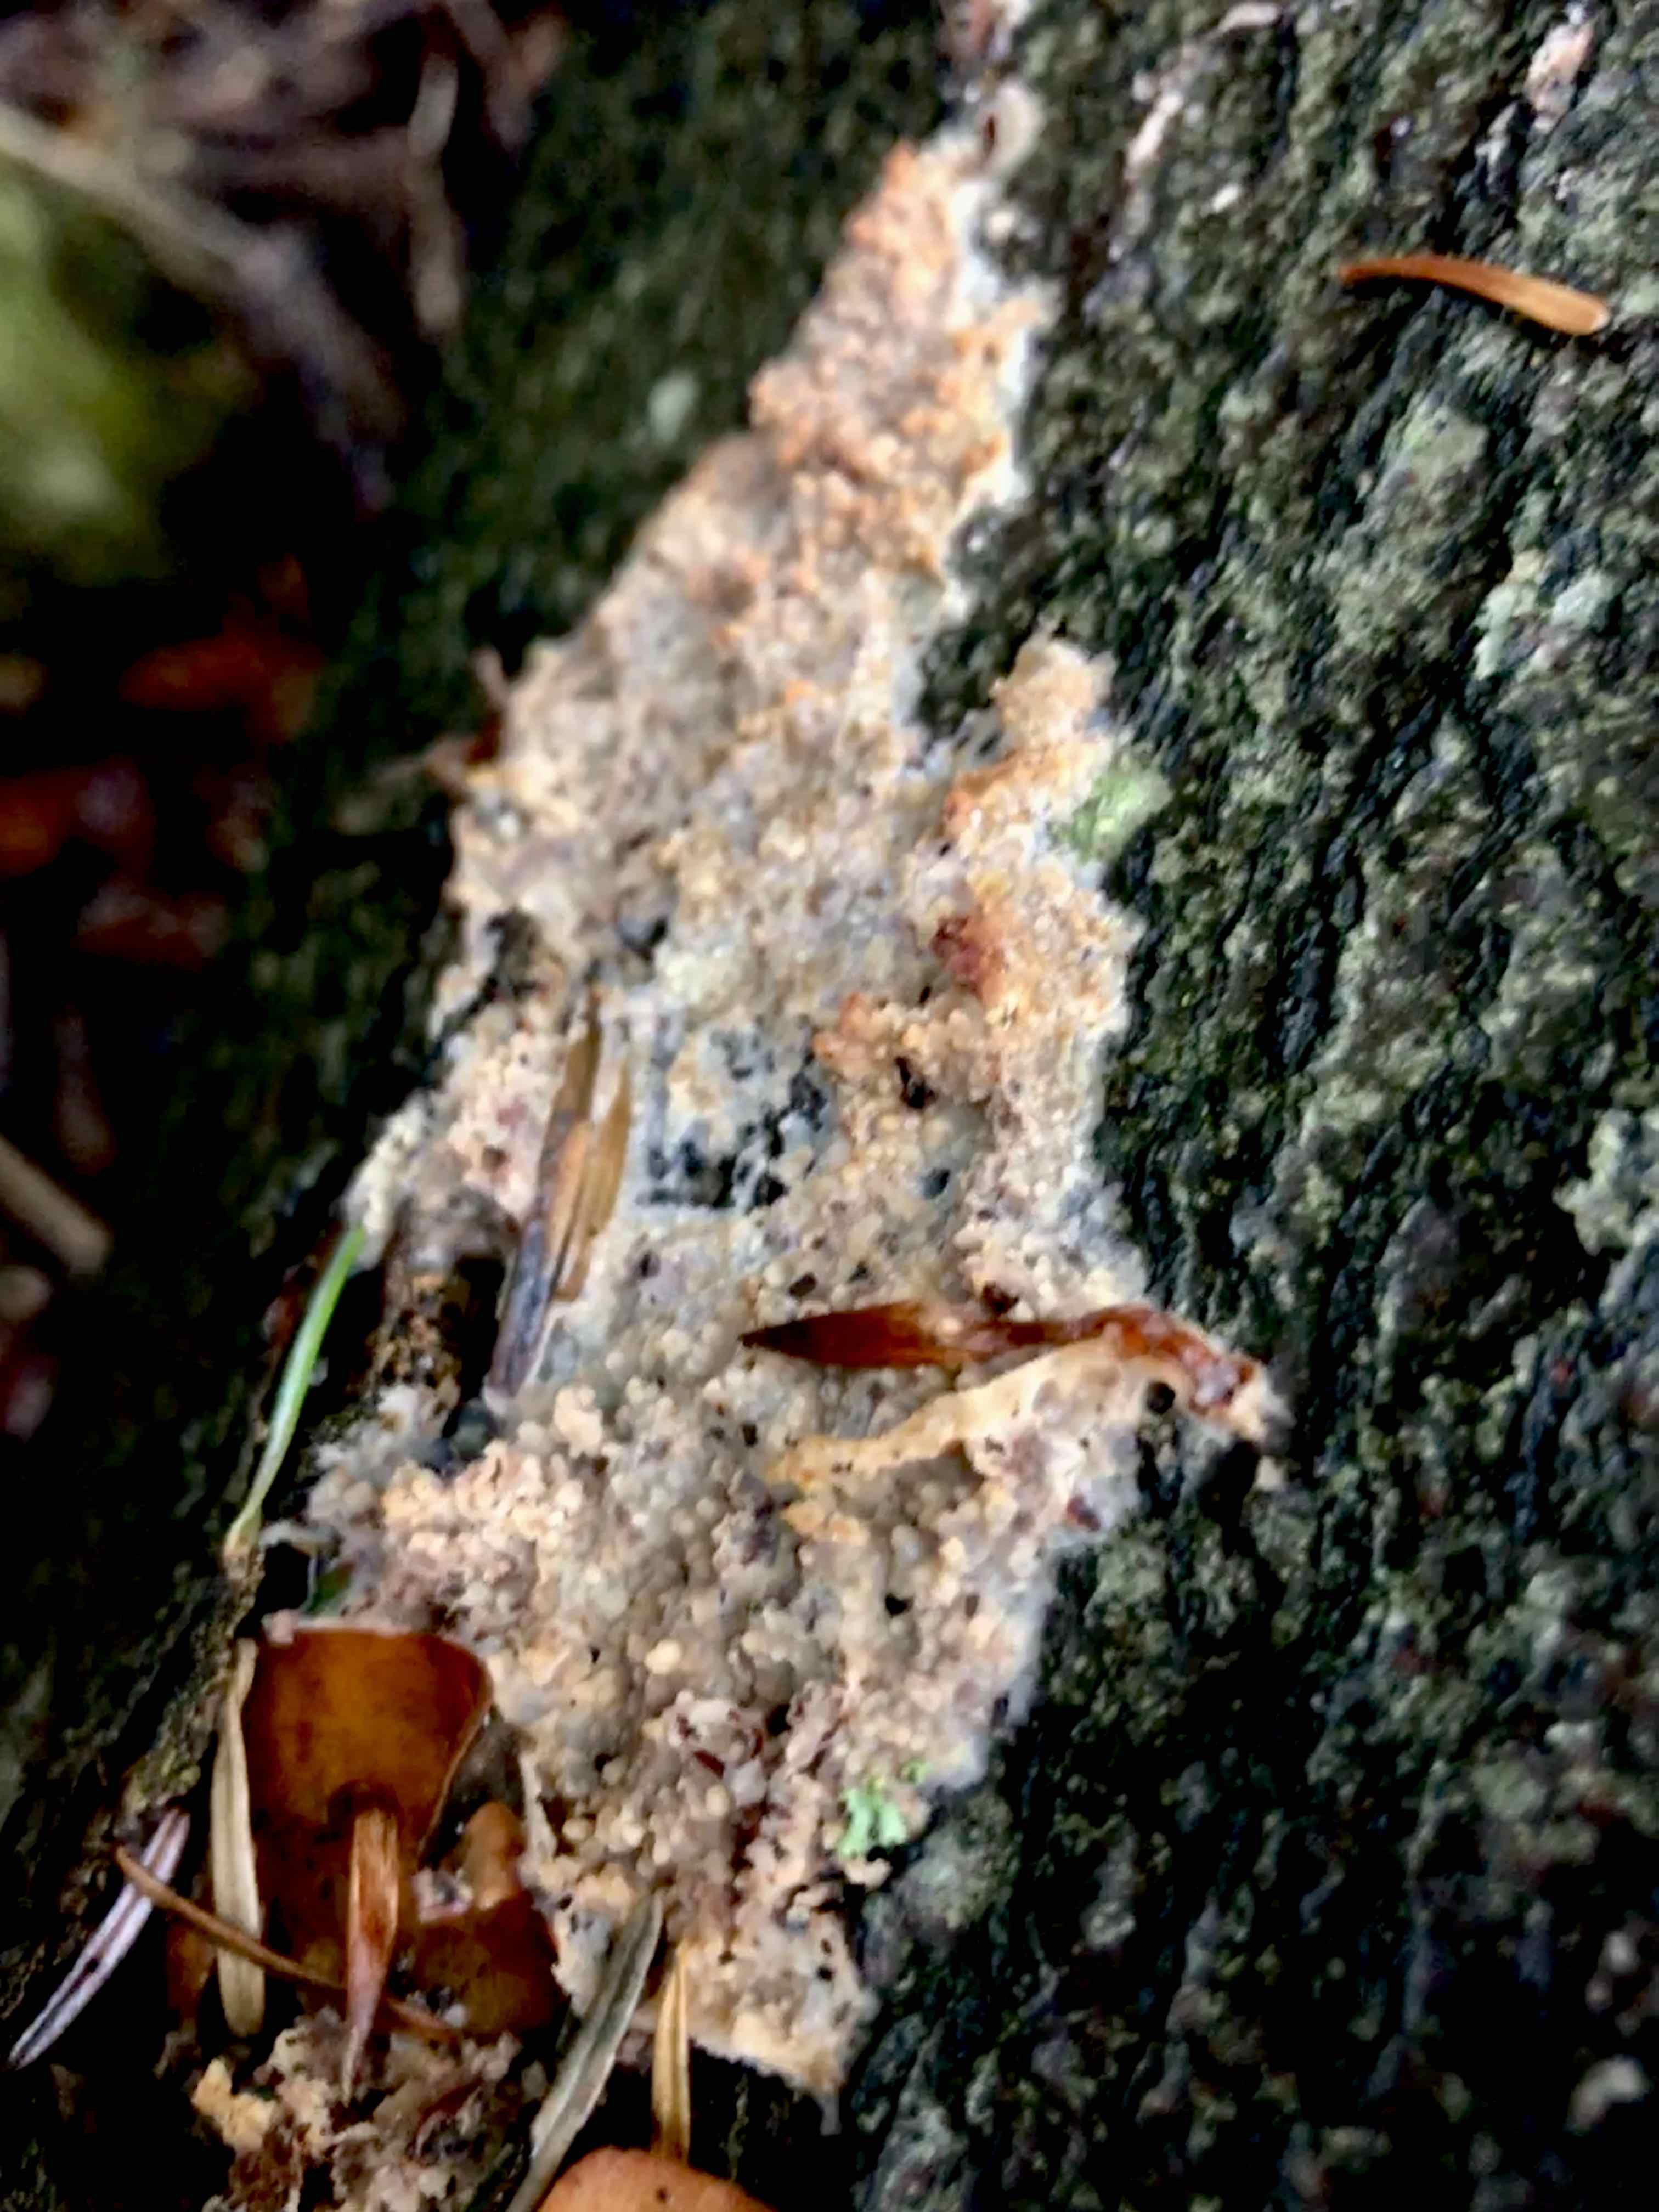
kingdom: Fungi
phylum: Basidiomycota
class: Agaricomycetes
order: Polyporales
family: Meruliaceae
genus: Phlebia
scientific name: Phlebia radiata
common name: stråle-åresvamp
